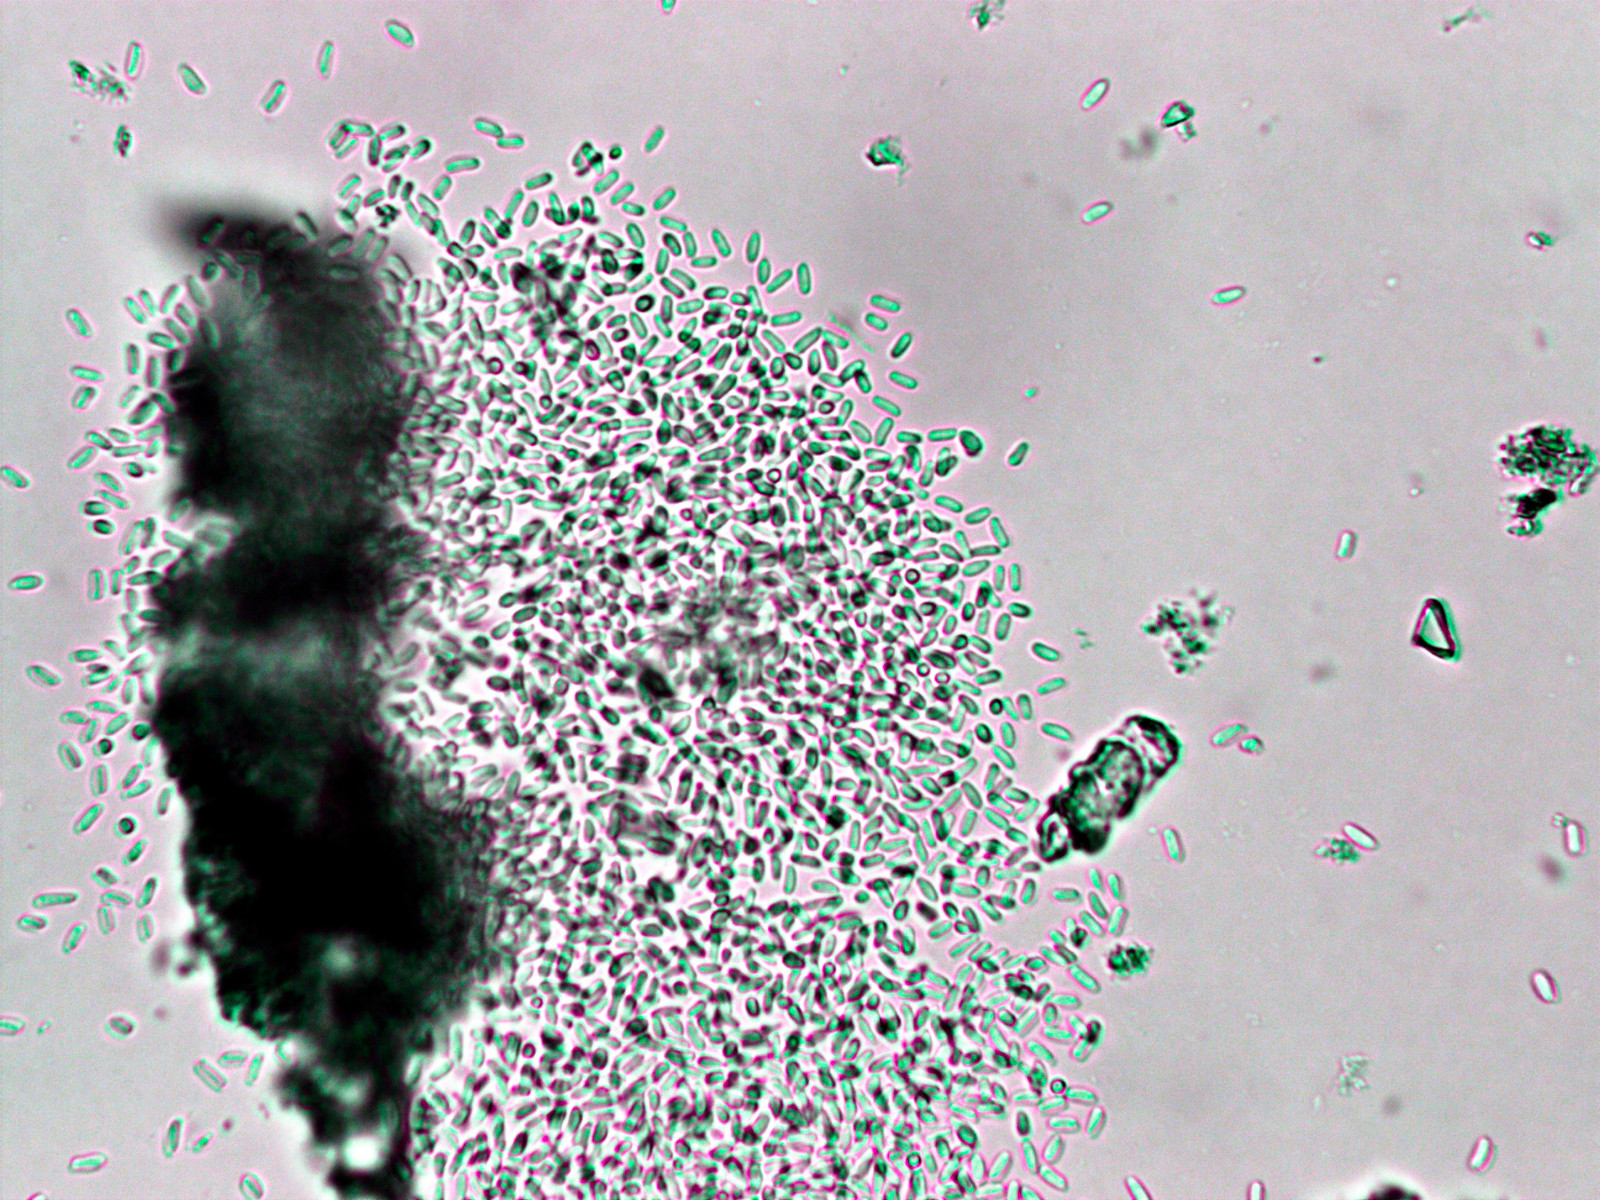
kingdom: Fungi
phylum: Ascomycota
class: Dothideomycetes
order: Pleosporales
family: Diademaceae
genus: Comoclathris
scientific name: Comoclathris typhicola
